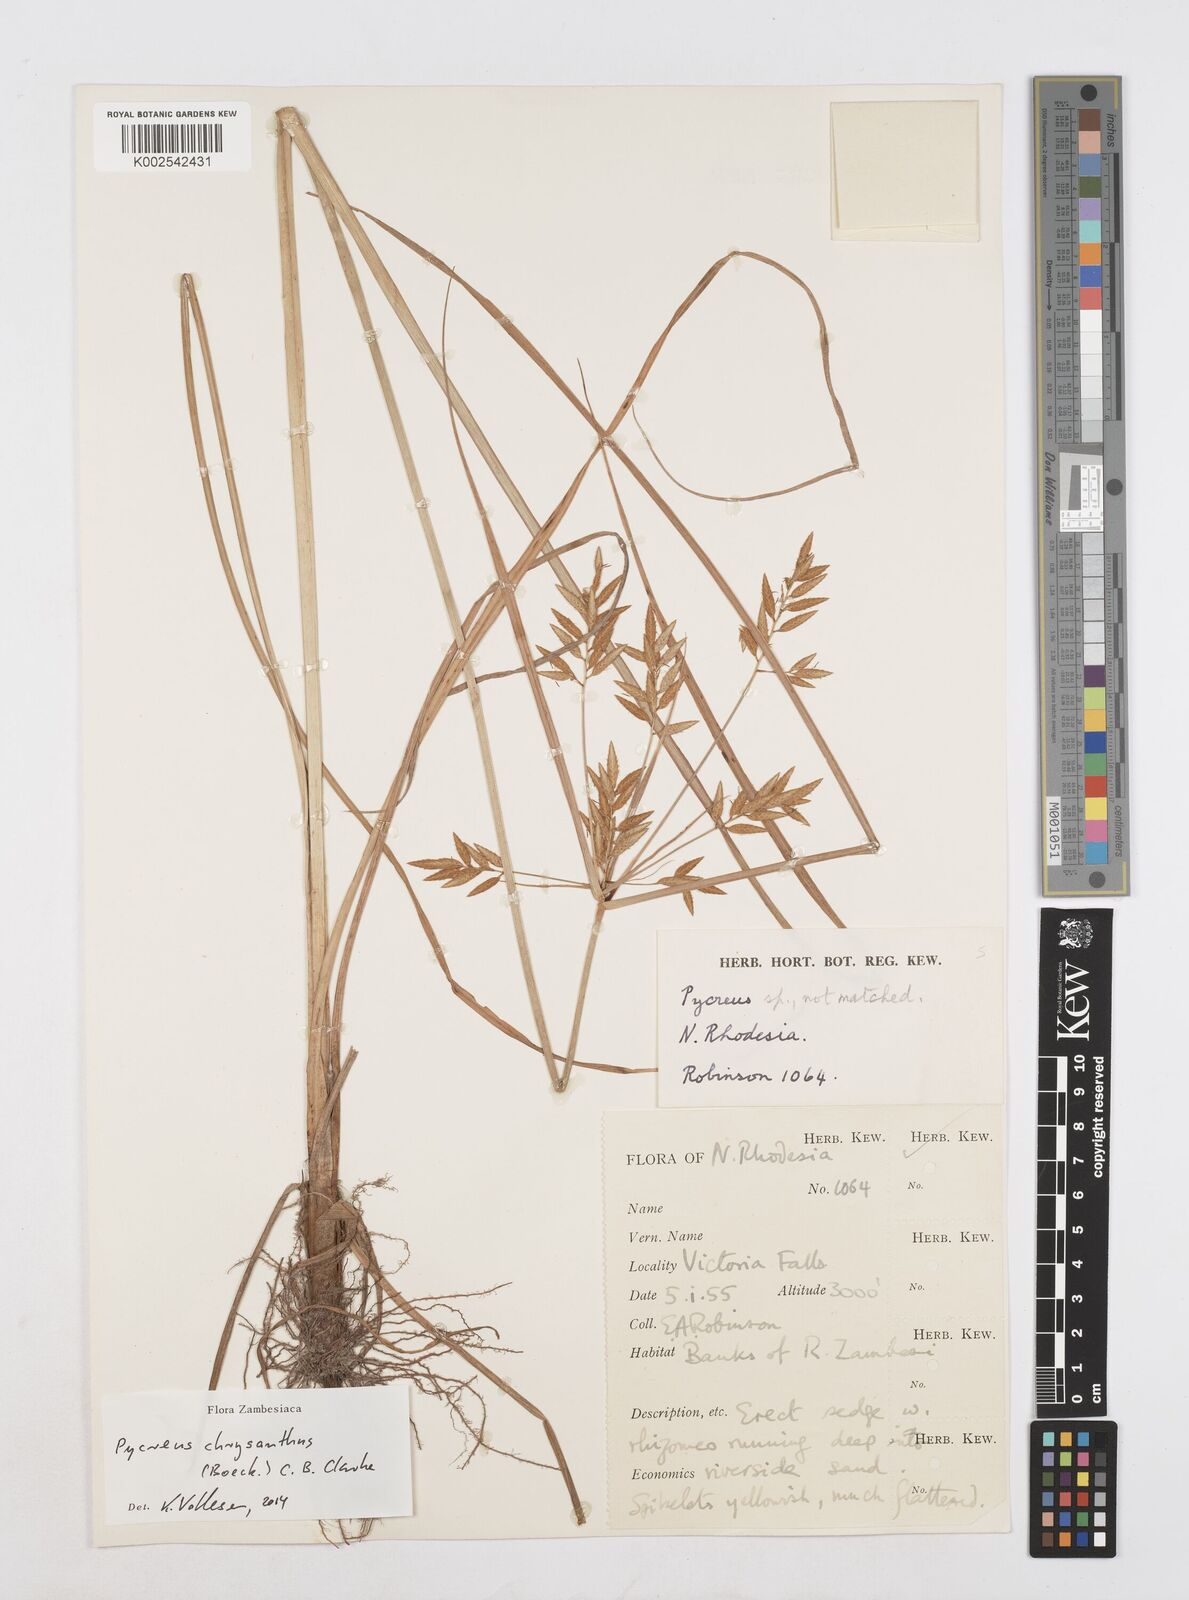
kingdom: Plantae
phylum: Tracheophyta
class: Liliopsida
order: Poales
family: Cyperaceae
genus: Cyperus
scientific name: Cyperus chrysanthus
